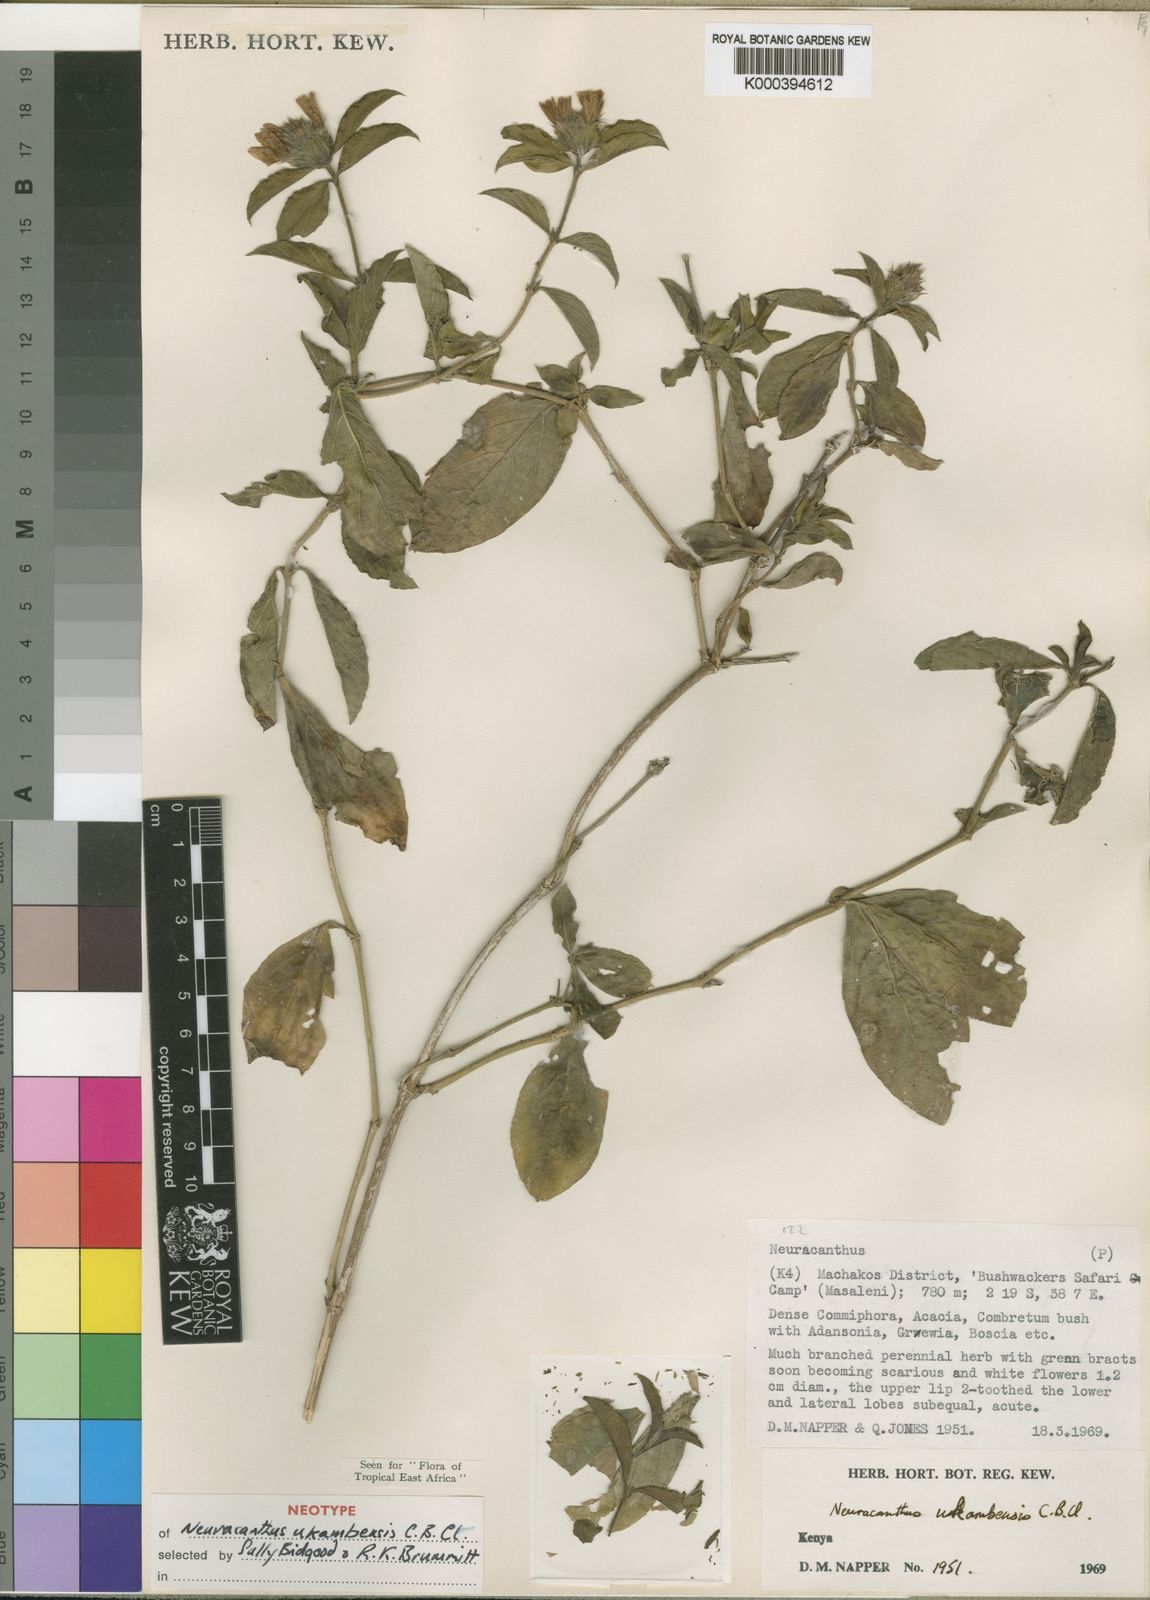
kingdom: Plantae
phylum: Tracheophyta
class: Magnoliopsida
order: Lamiales
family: Acanthaceae
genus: Neuracanthus
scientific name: Neuracanthus ukambensis
